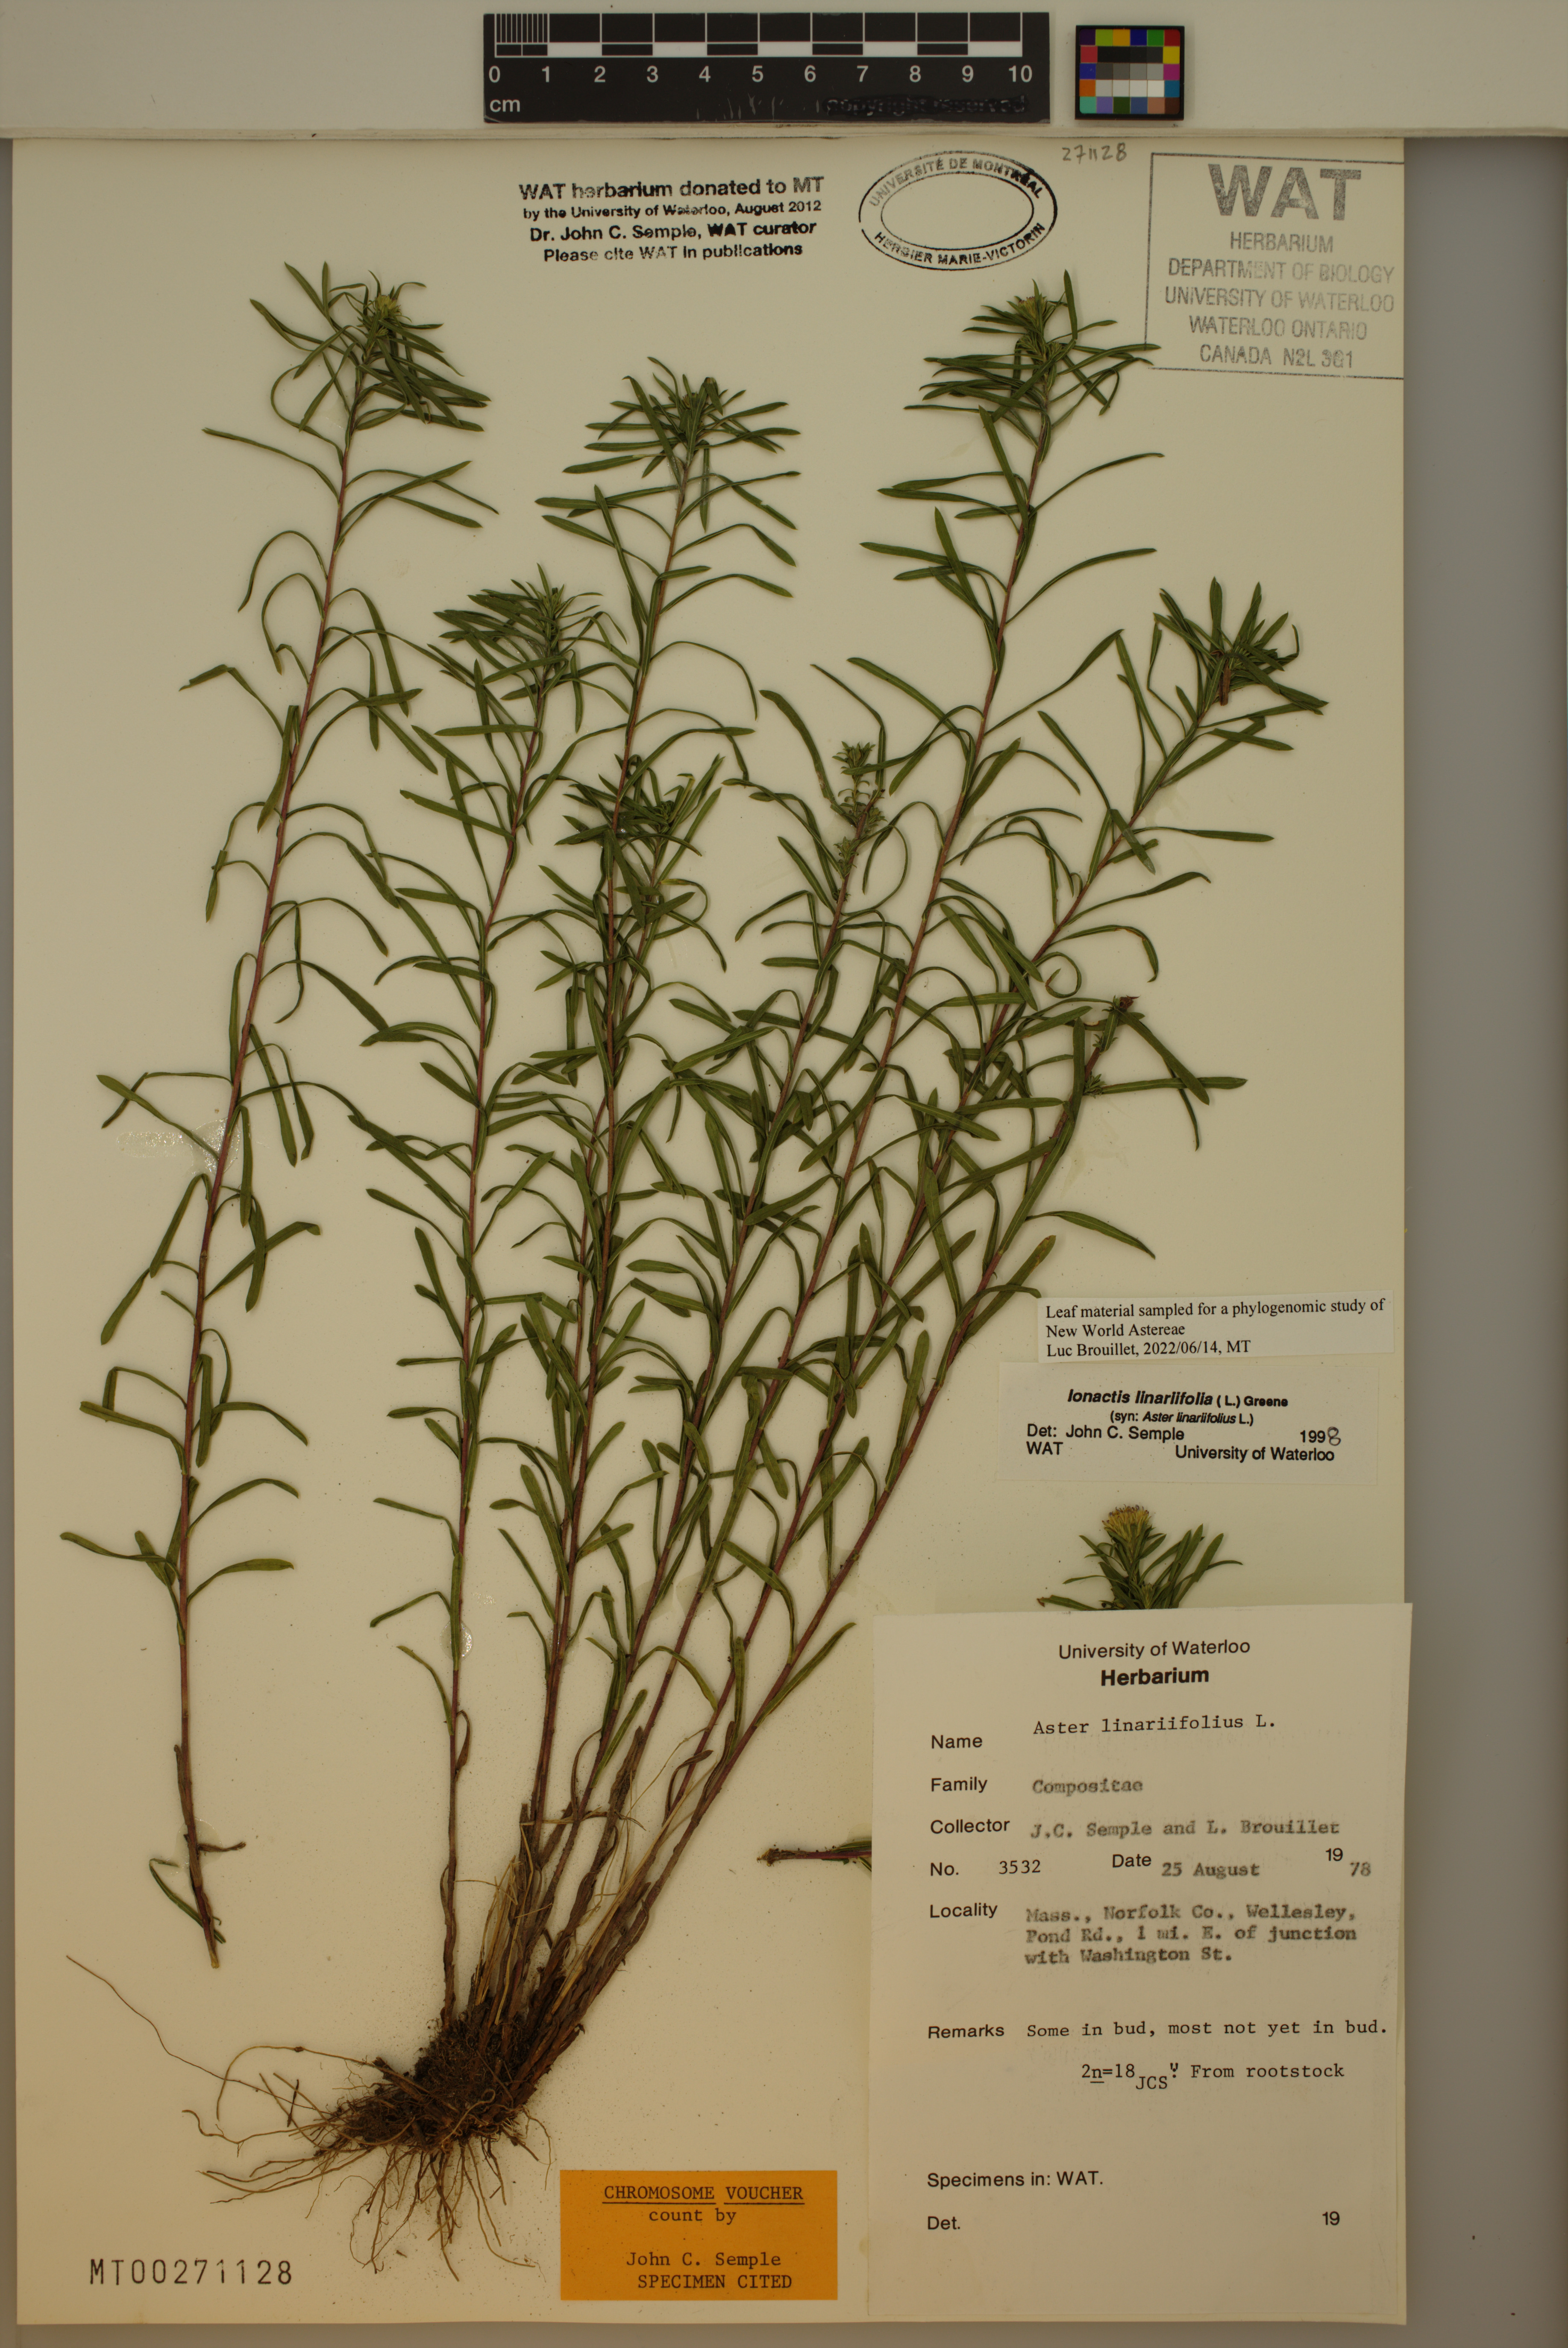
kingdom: Plantae
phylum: Tracheophyta
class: Magnoliopsida
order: Asterales
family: Asteraceae
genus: Ionactis
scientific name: Ionactis linariifolia
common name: Flax-leaf aster
